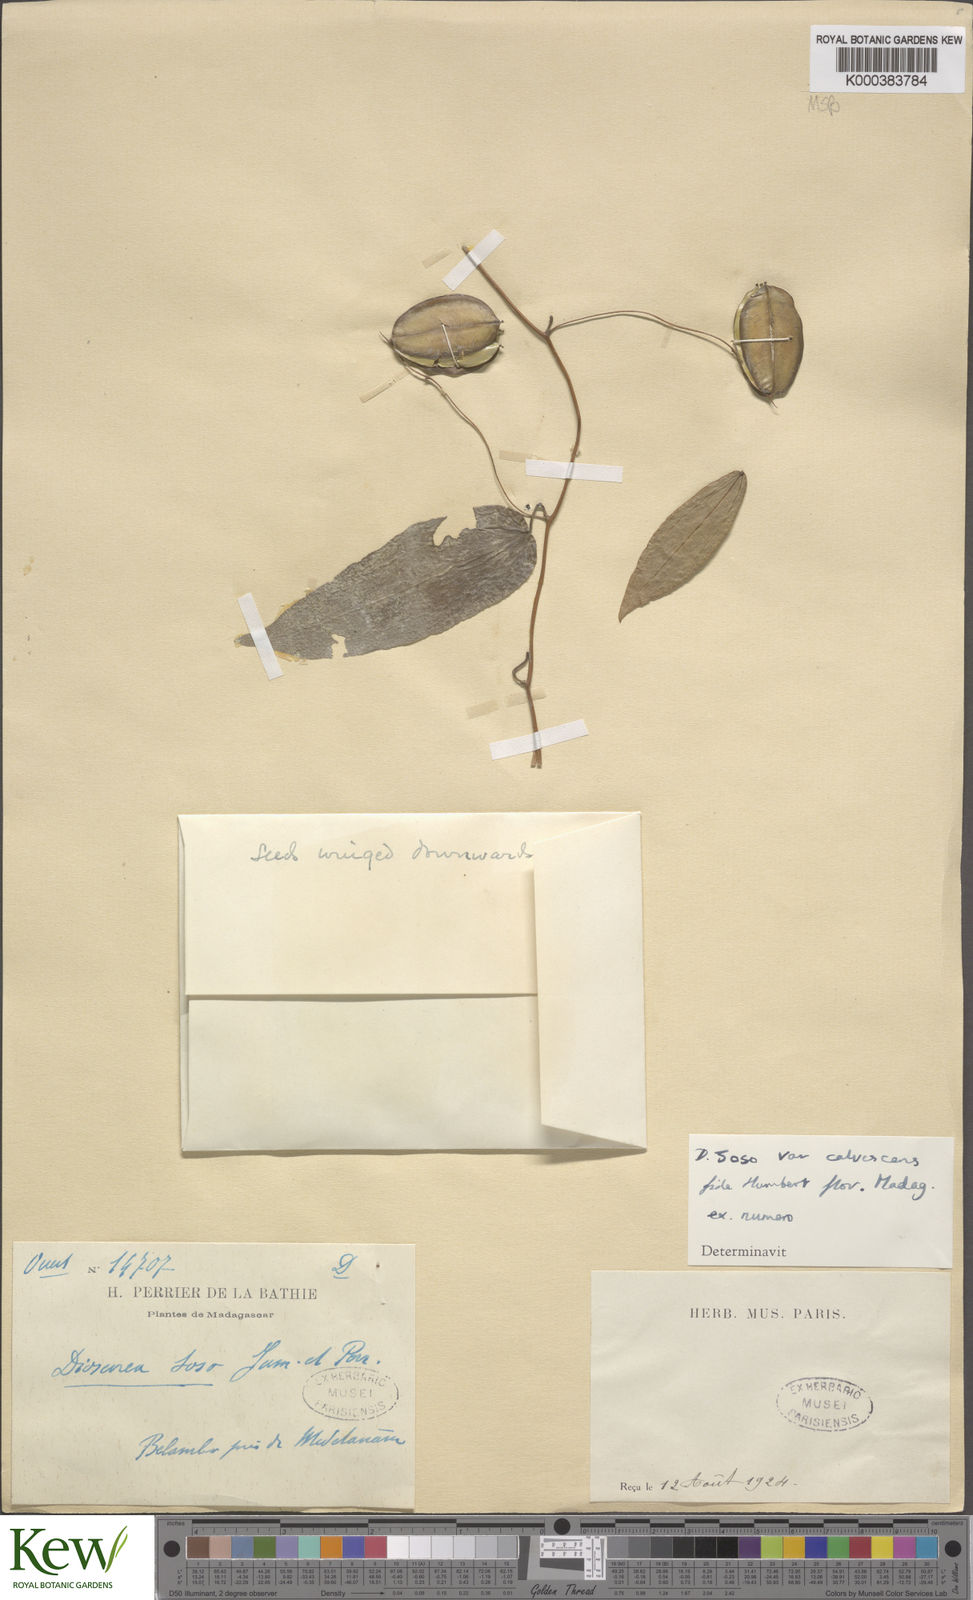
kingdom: Plantae
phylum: Tracheophyta
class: Liliopsida
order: Dioscoreales
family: Dioscoreaceae
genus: Dioscorea
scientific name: Dioscorea
